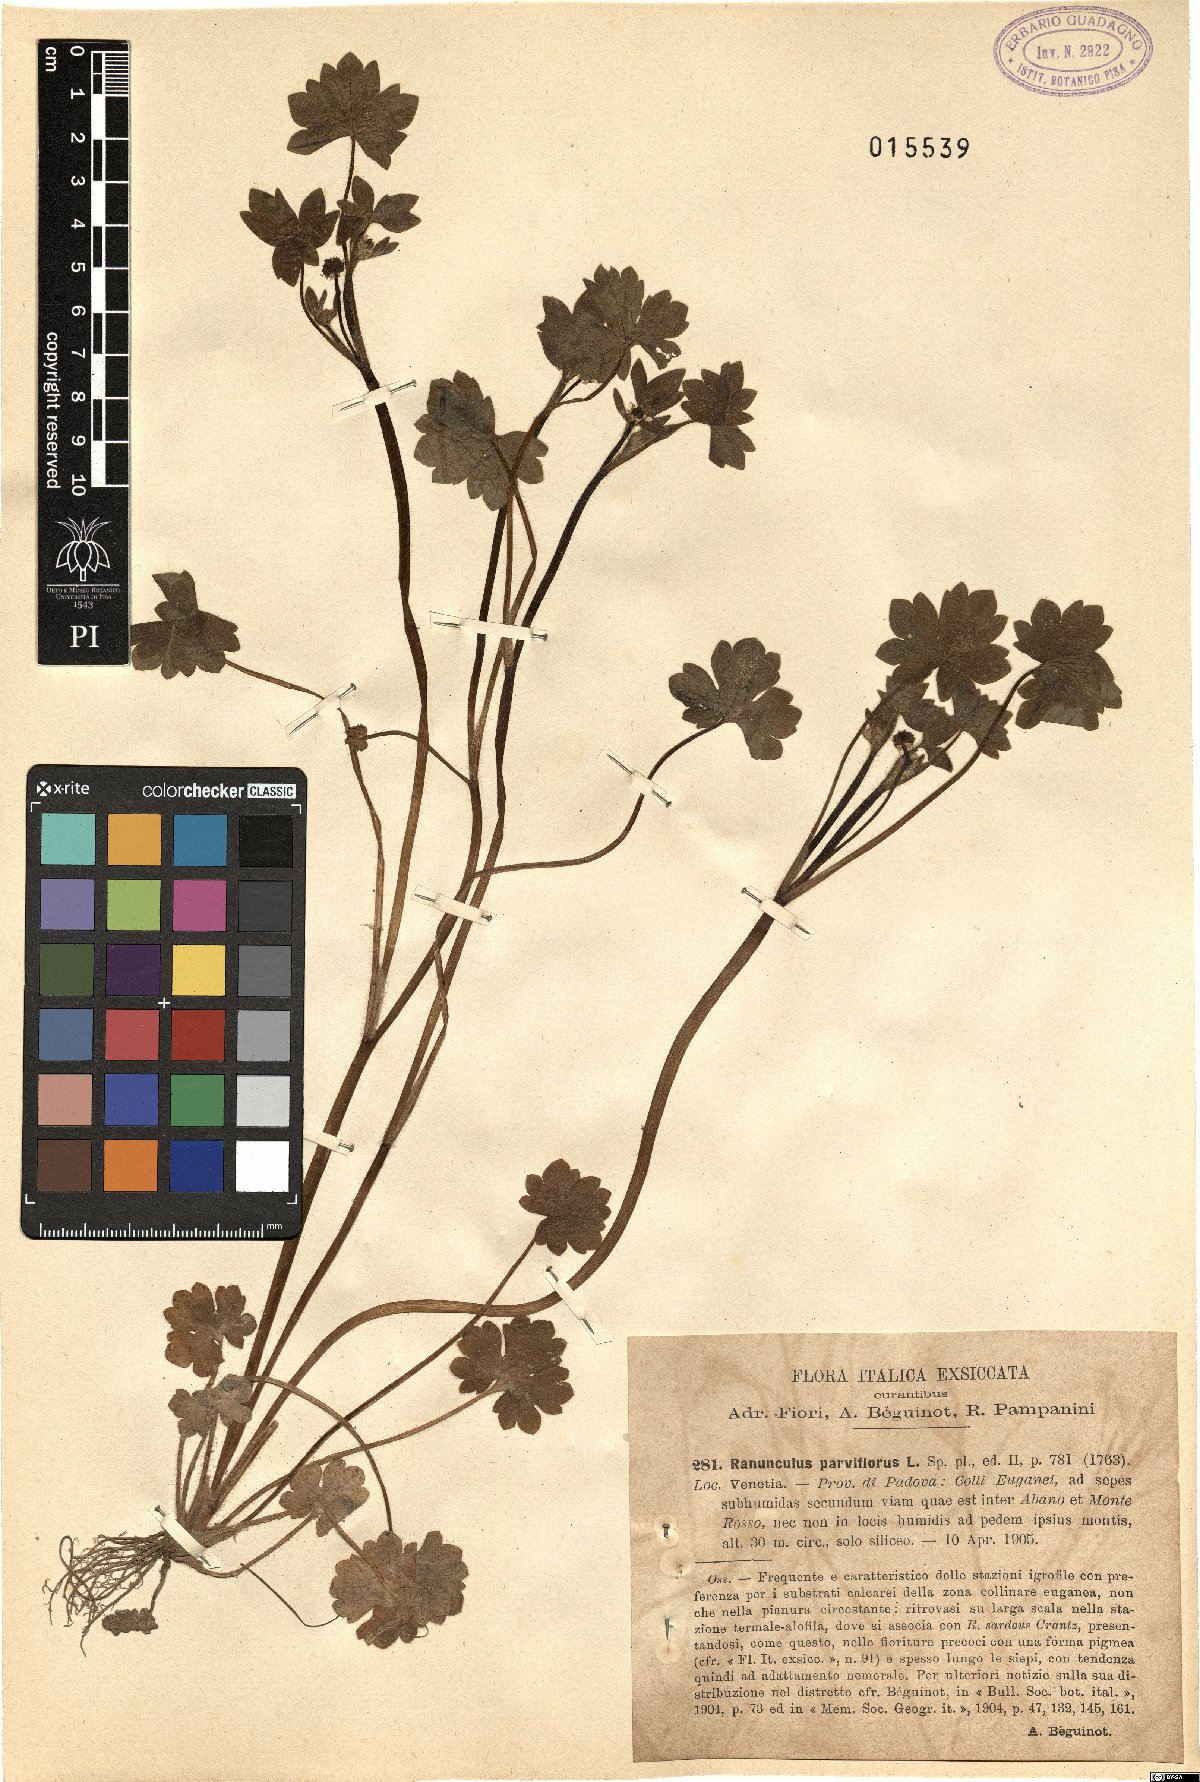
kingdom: Plantae
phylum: Tracheophyta
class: Magnoliopsida
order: Ranunculales
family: Ranunculaceae
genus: Ranunculus
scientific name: Ranunculus parviflorus
